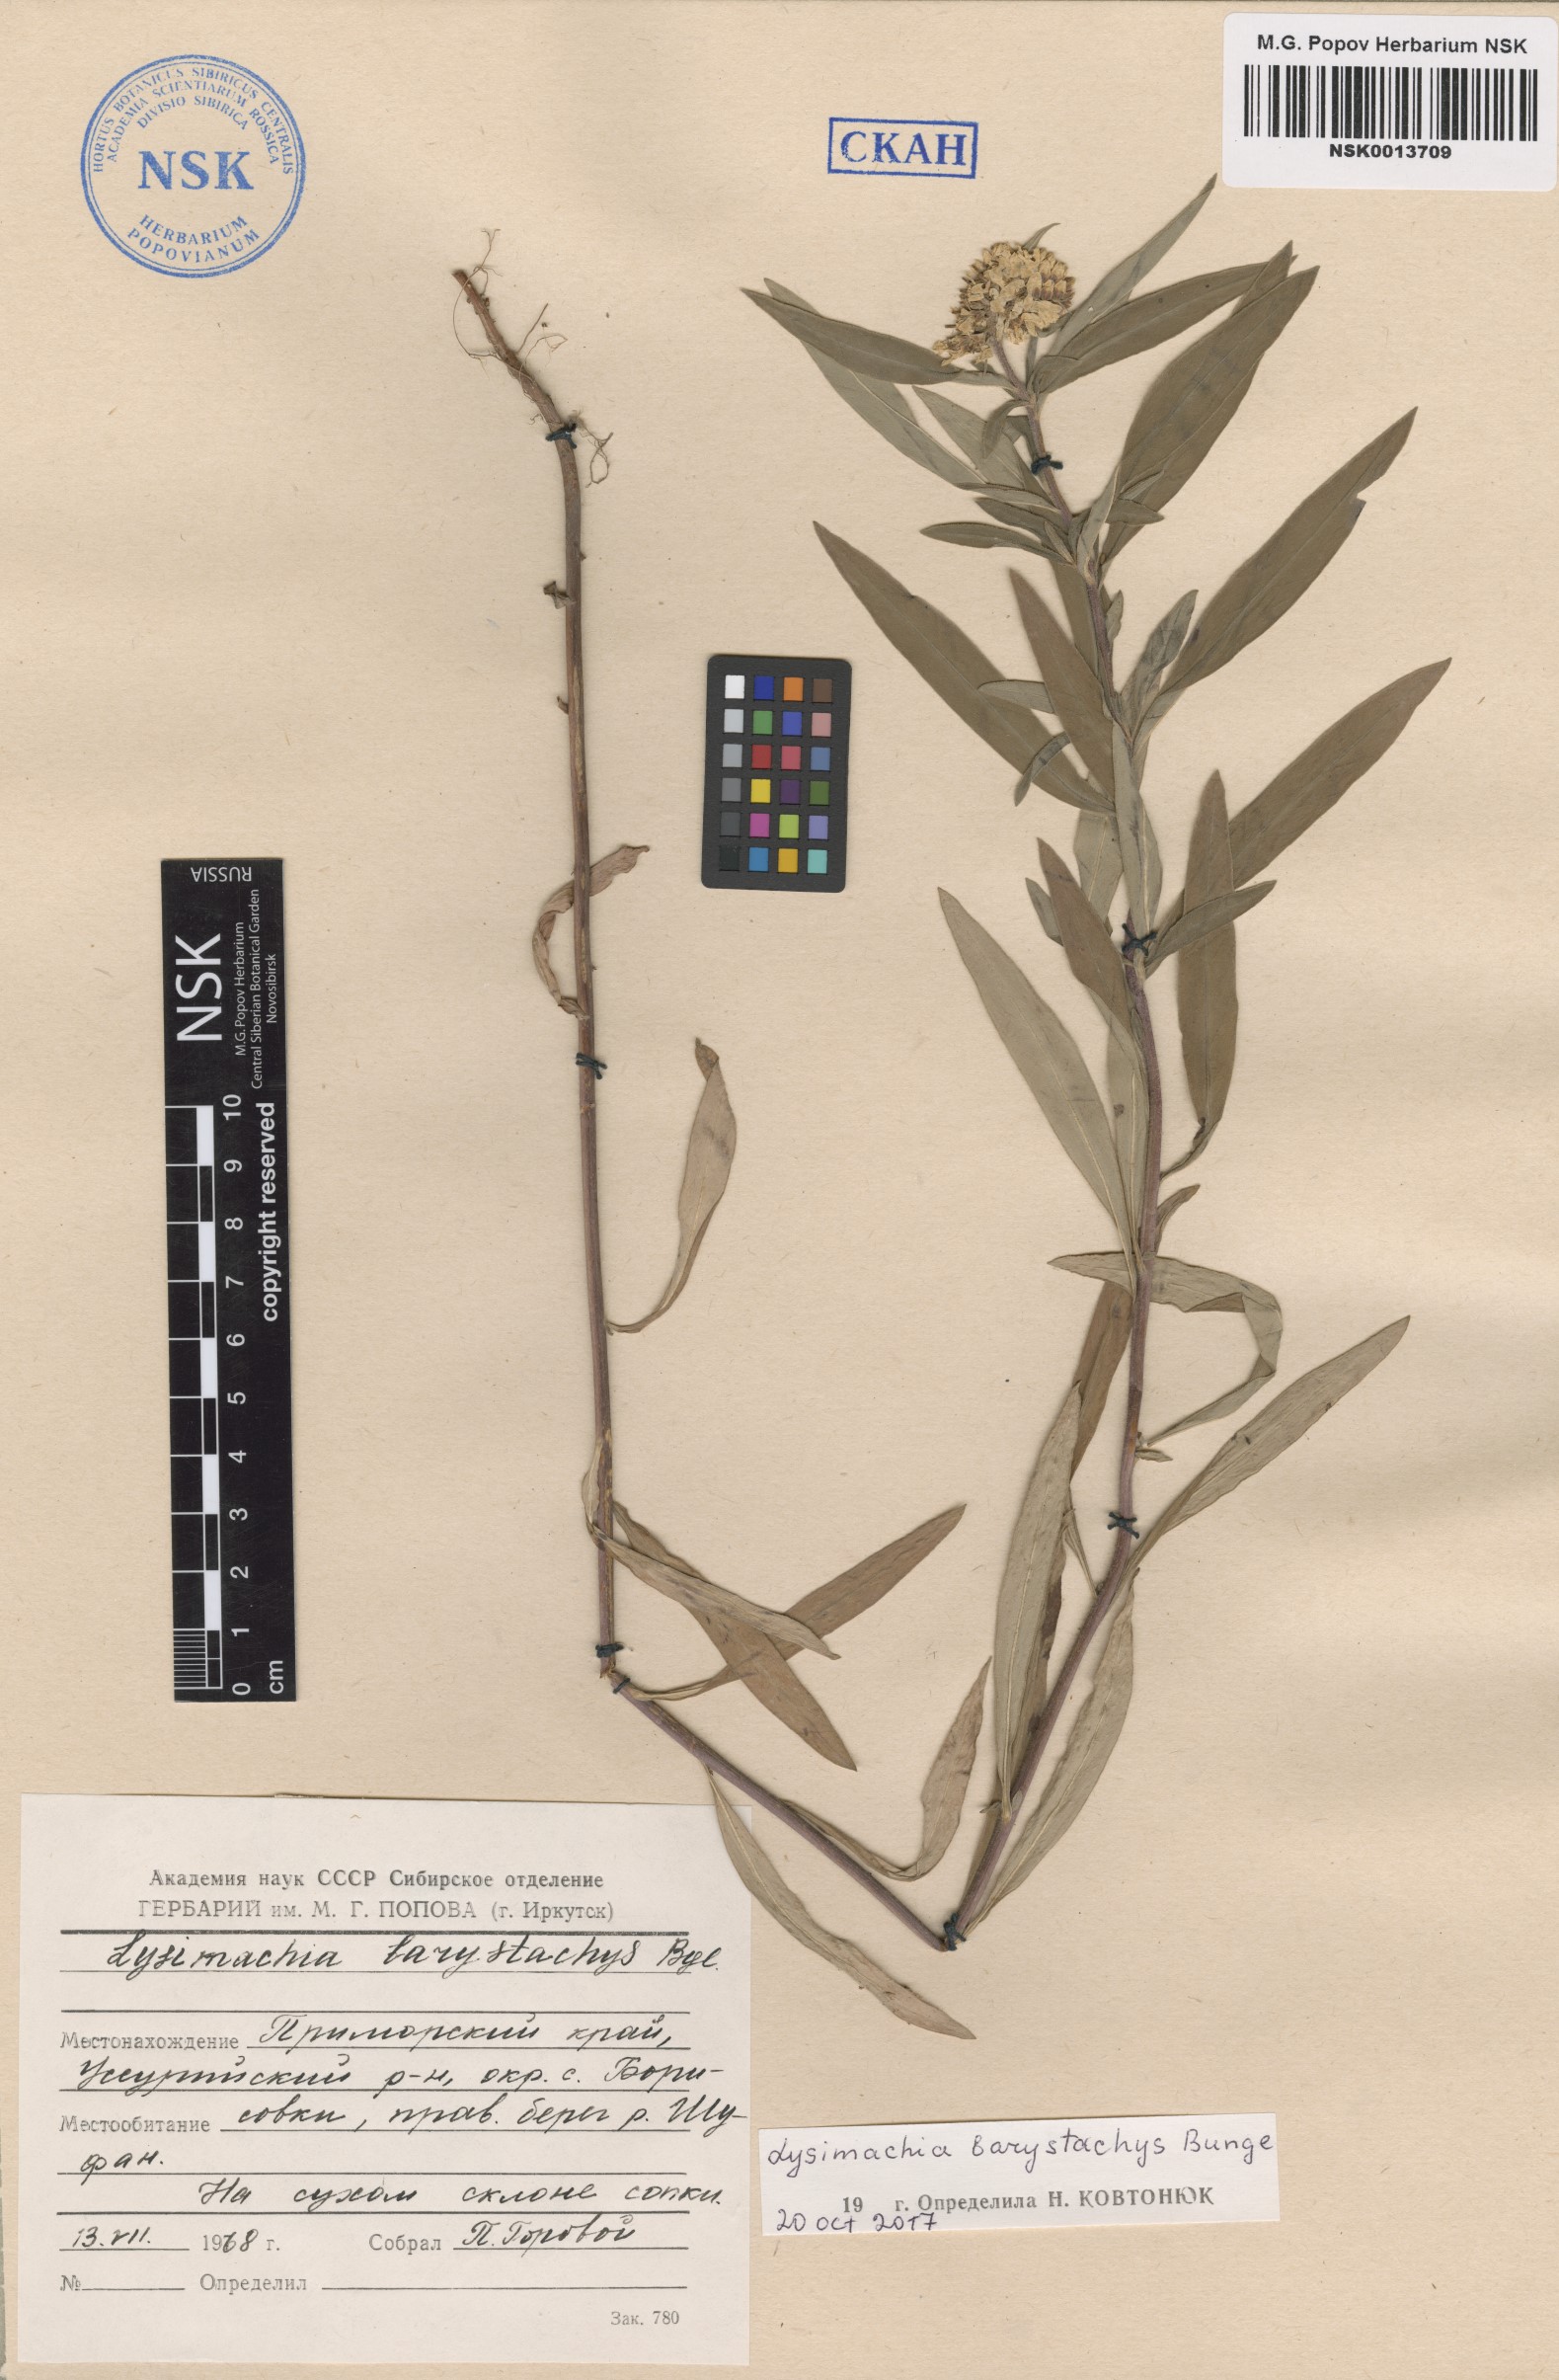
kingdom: Plantae
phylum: Tracheophyta
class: Magnoliopsida
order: Ericales
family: Primulaceae
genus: Lysimachia
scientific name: Lysimachia barystachys
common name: Manchurian yellow loosestrife
